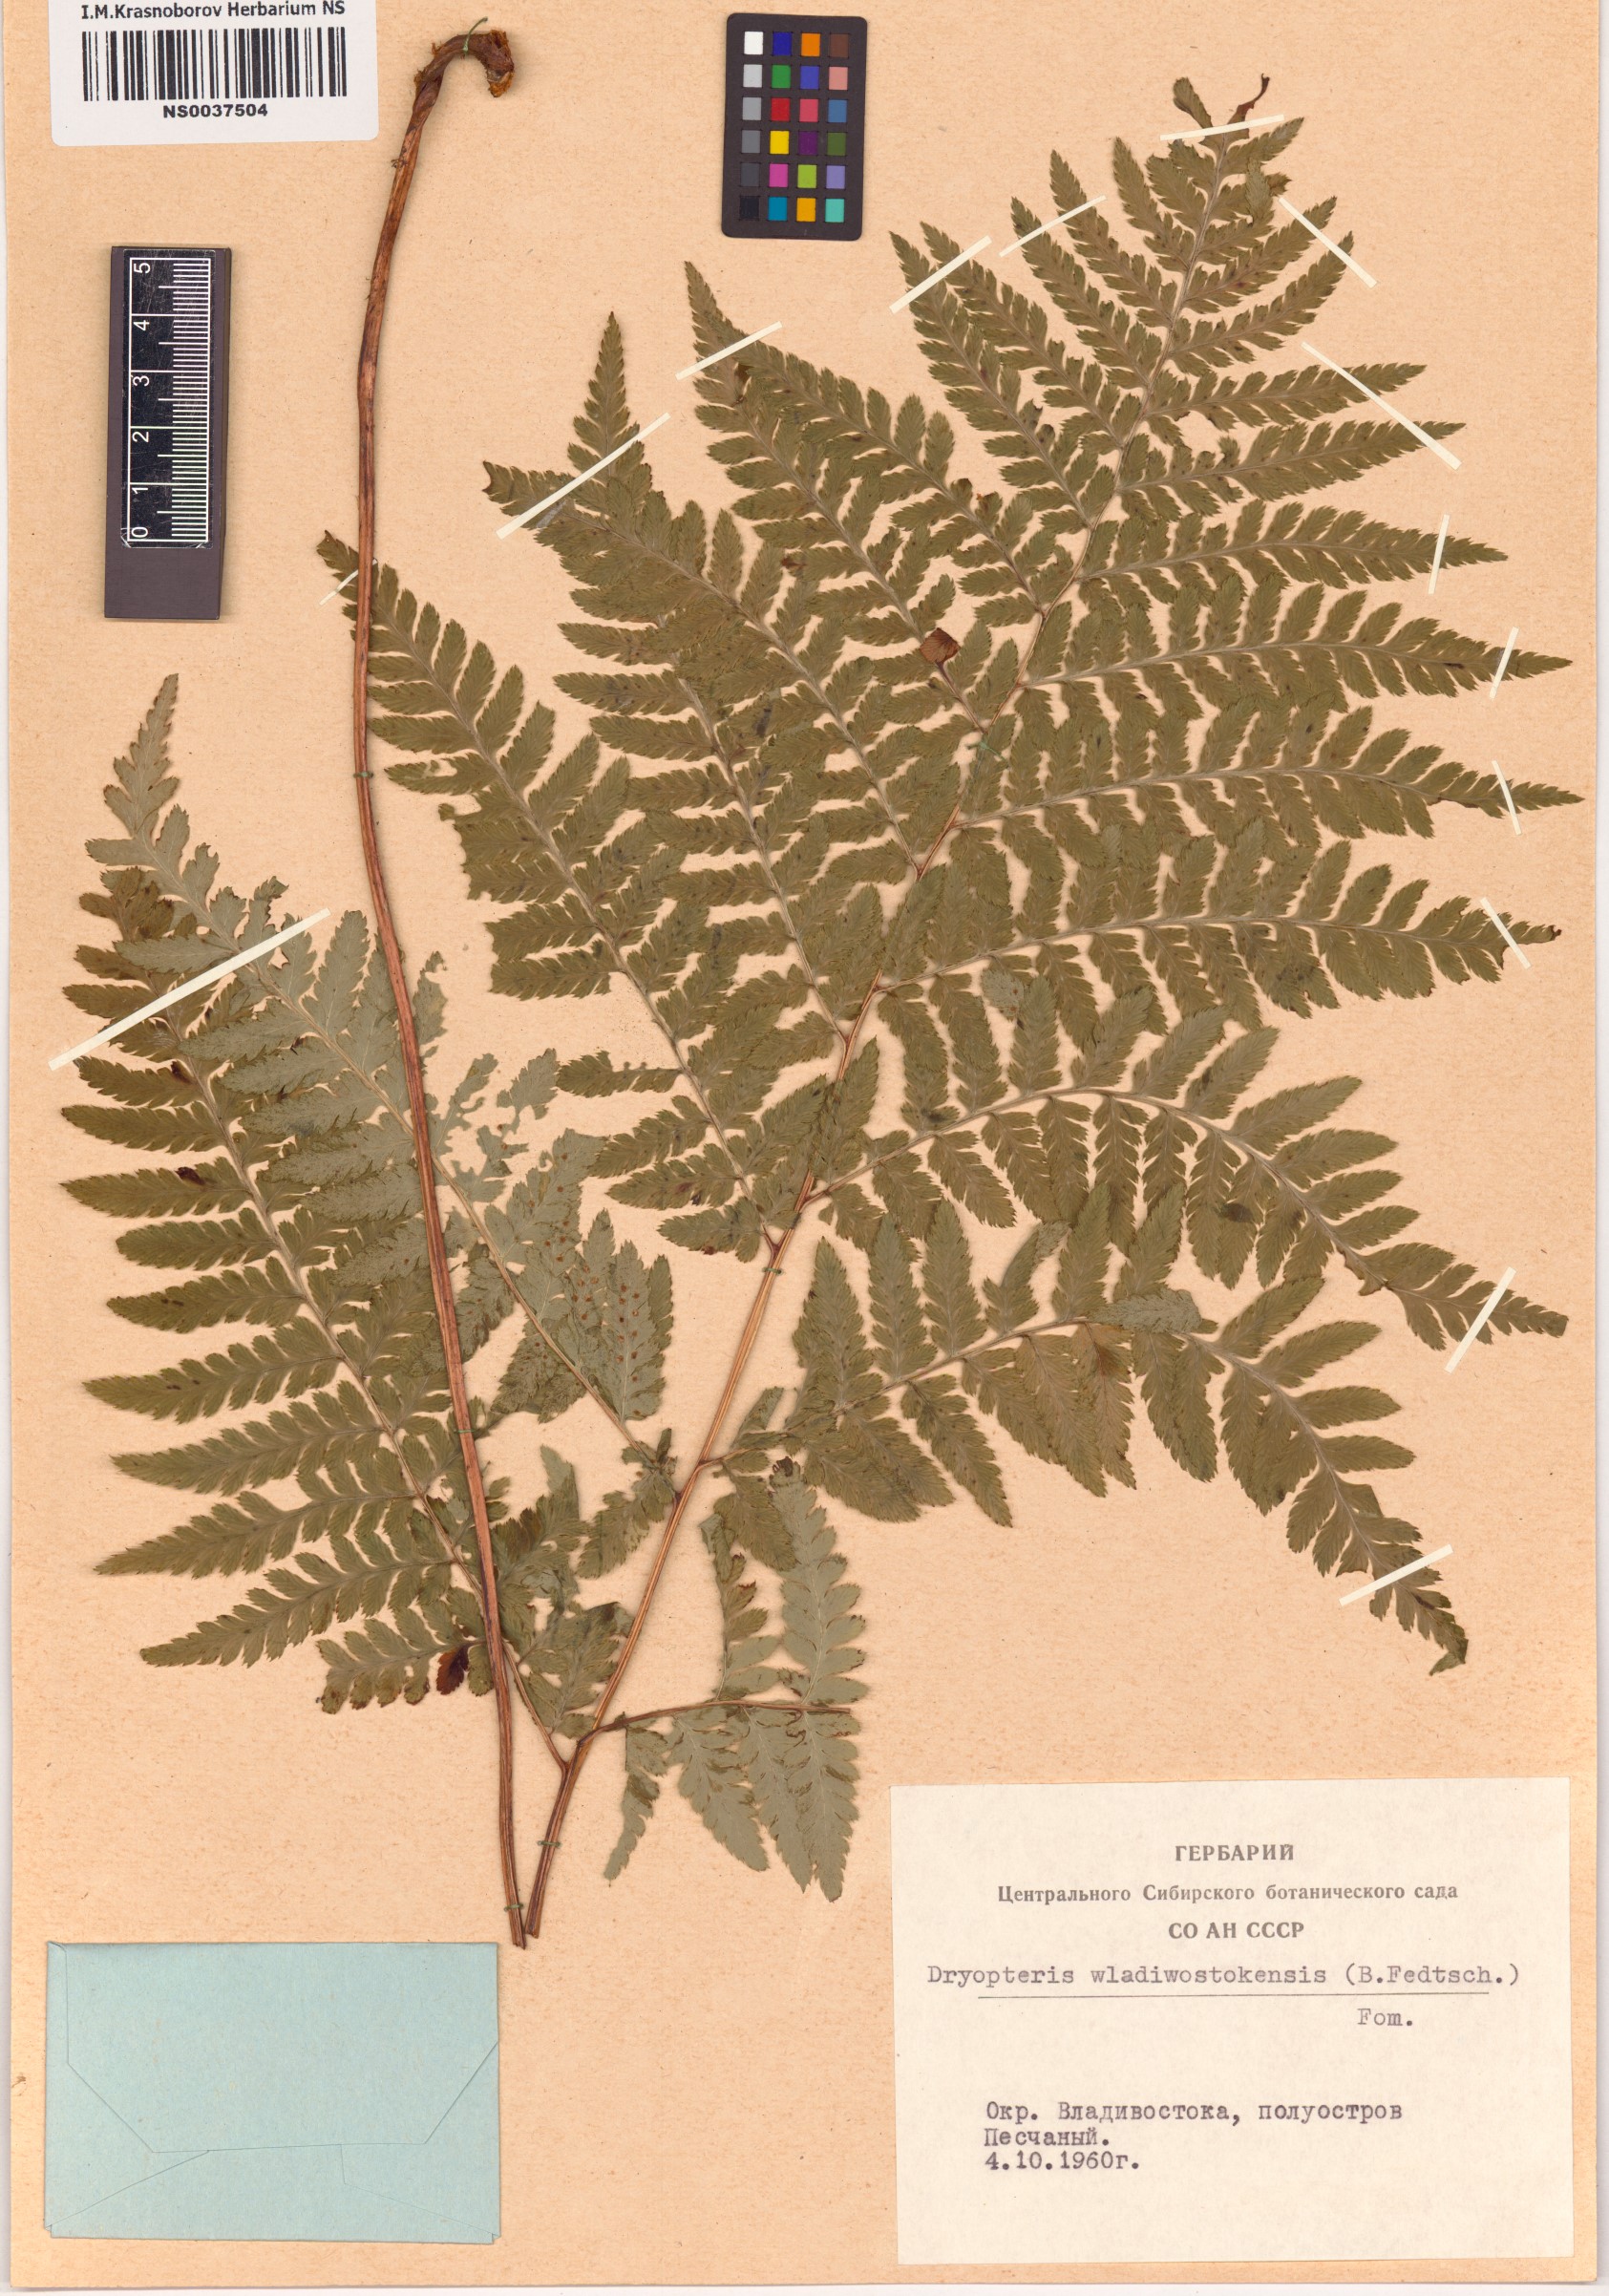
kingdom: Plantae
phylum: Tracheophyta
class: Polypodiopsida
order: Polypodiales
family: Dryopteridaceae
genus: Dryopteris
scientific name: Dryopteris laeta
